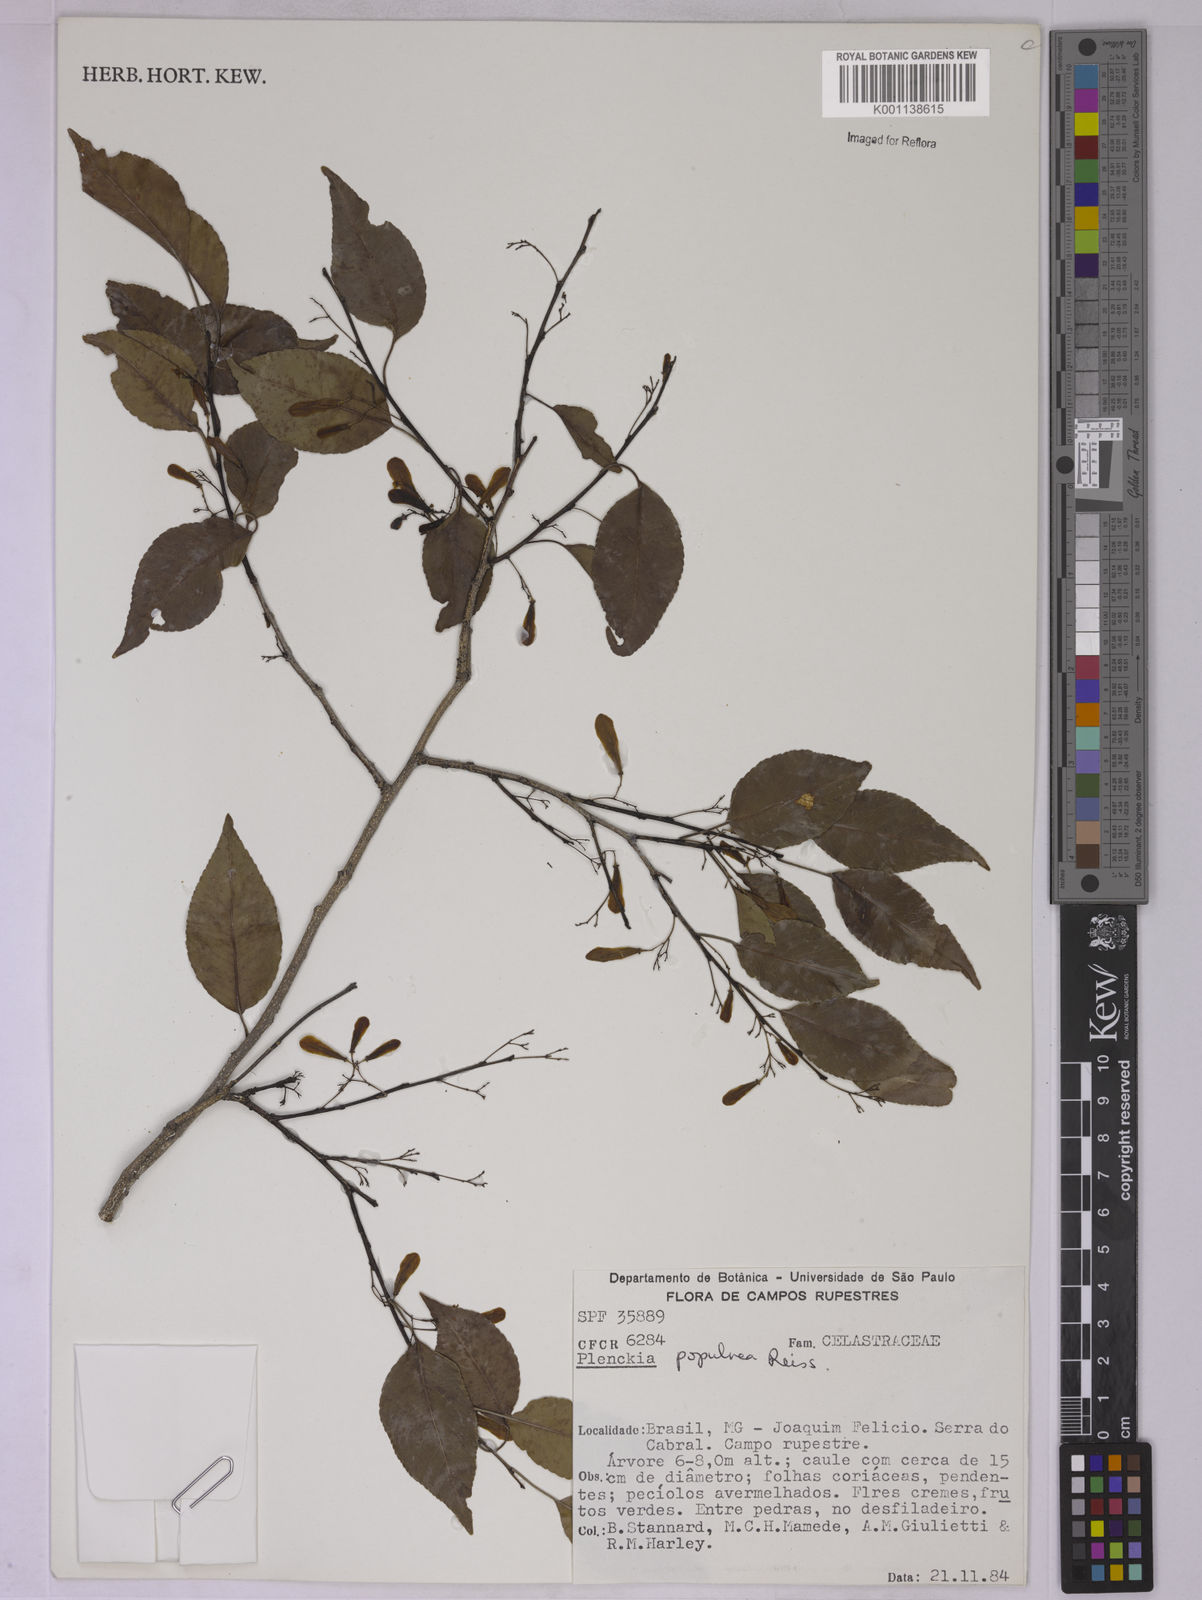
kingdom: Plantae
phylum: Tracheophyta
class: Magnoliopsida
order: Celastrales
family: Celastraceae
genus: Plenckia
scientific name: Plenckia populnea
